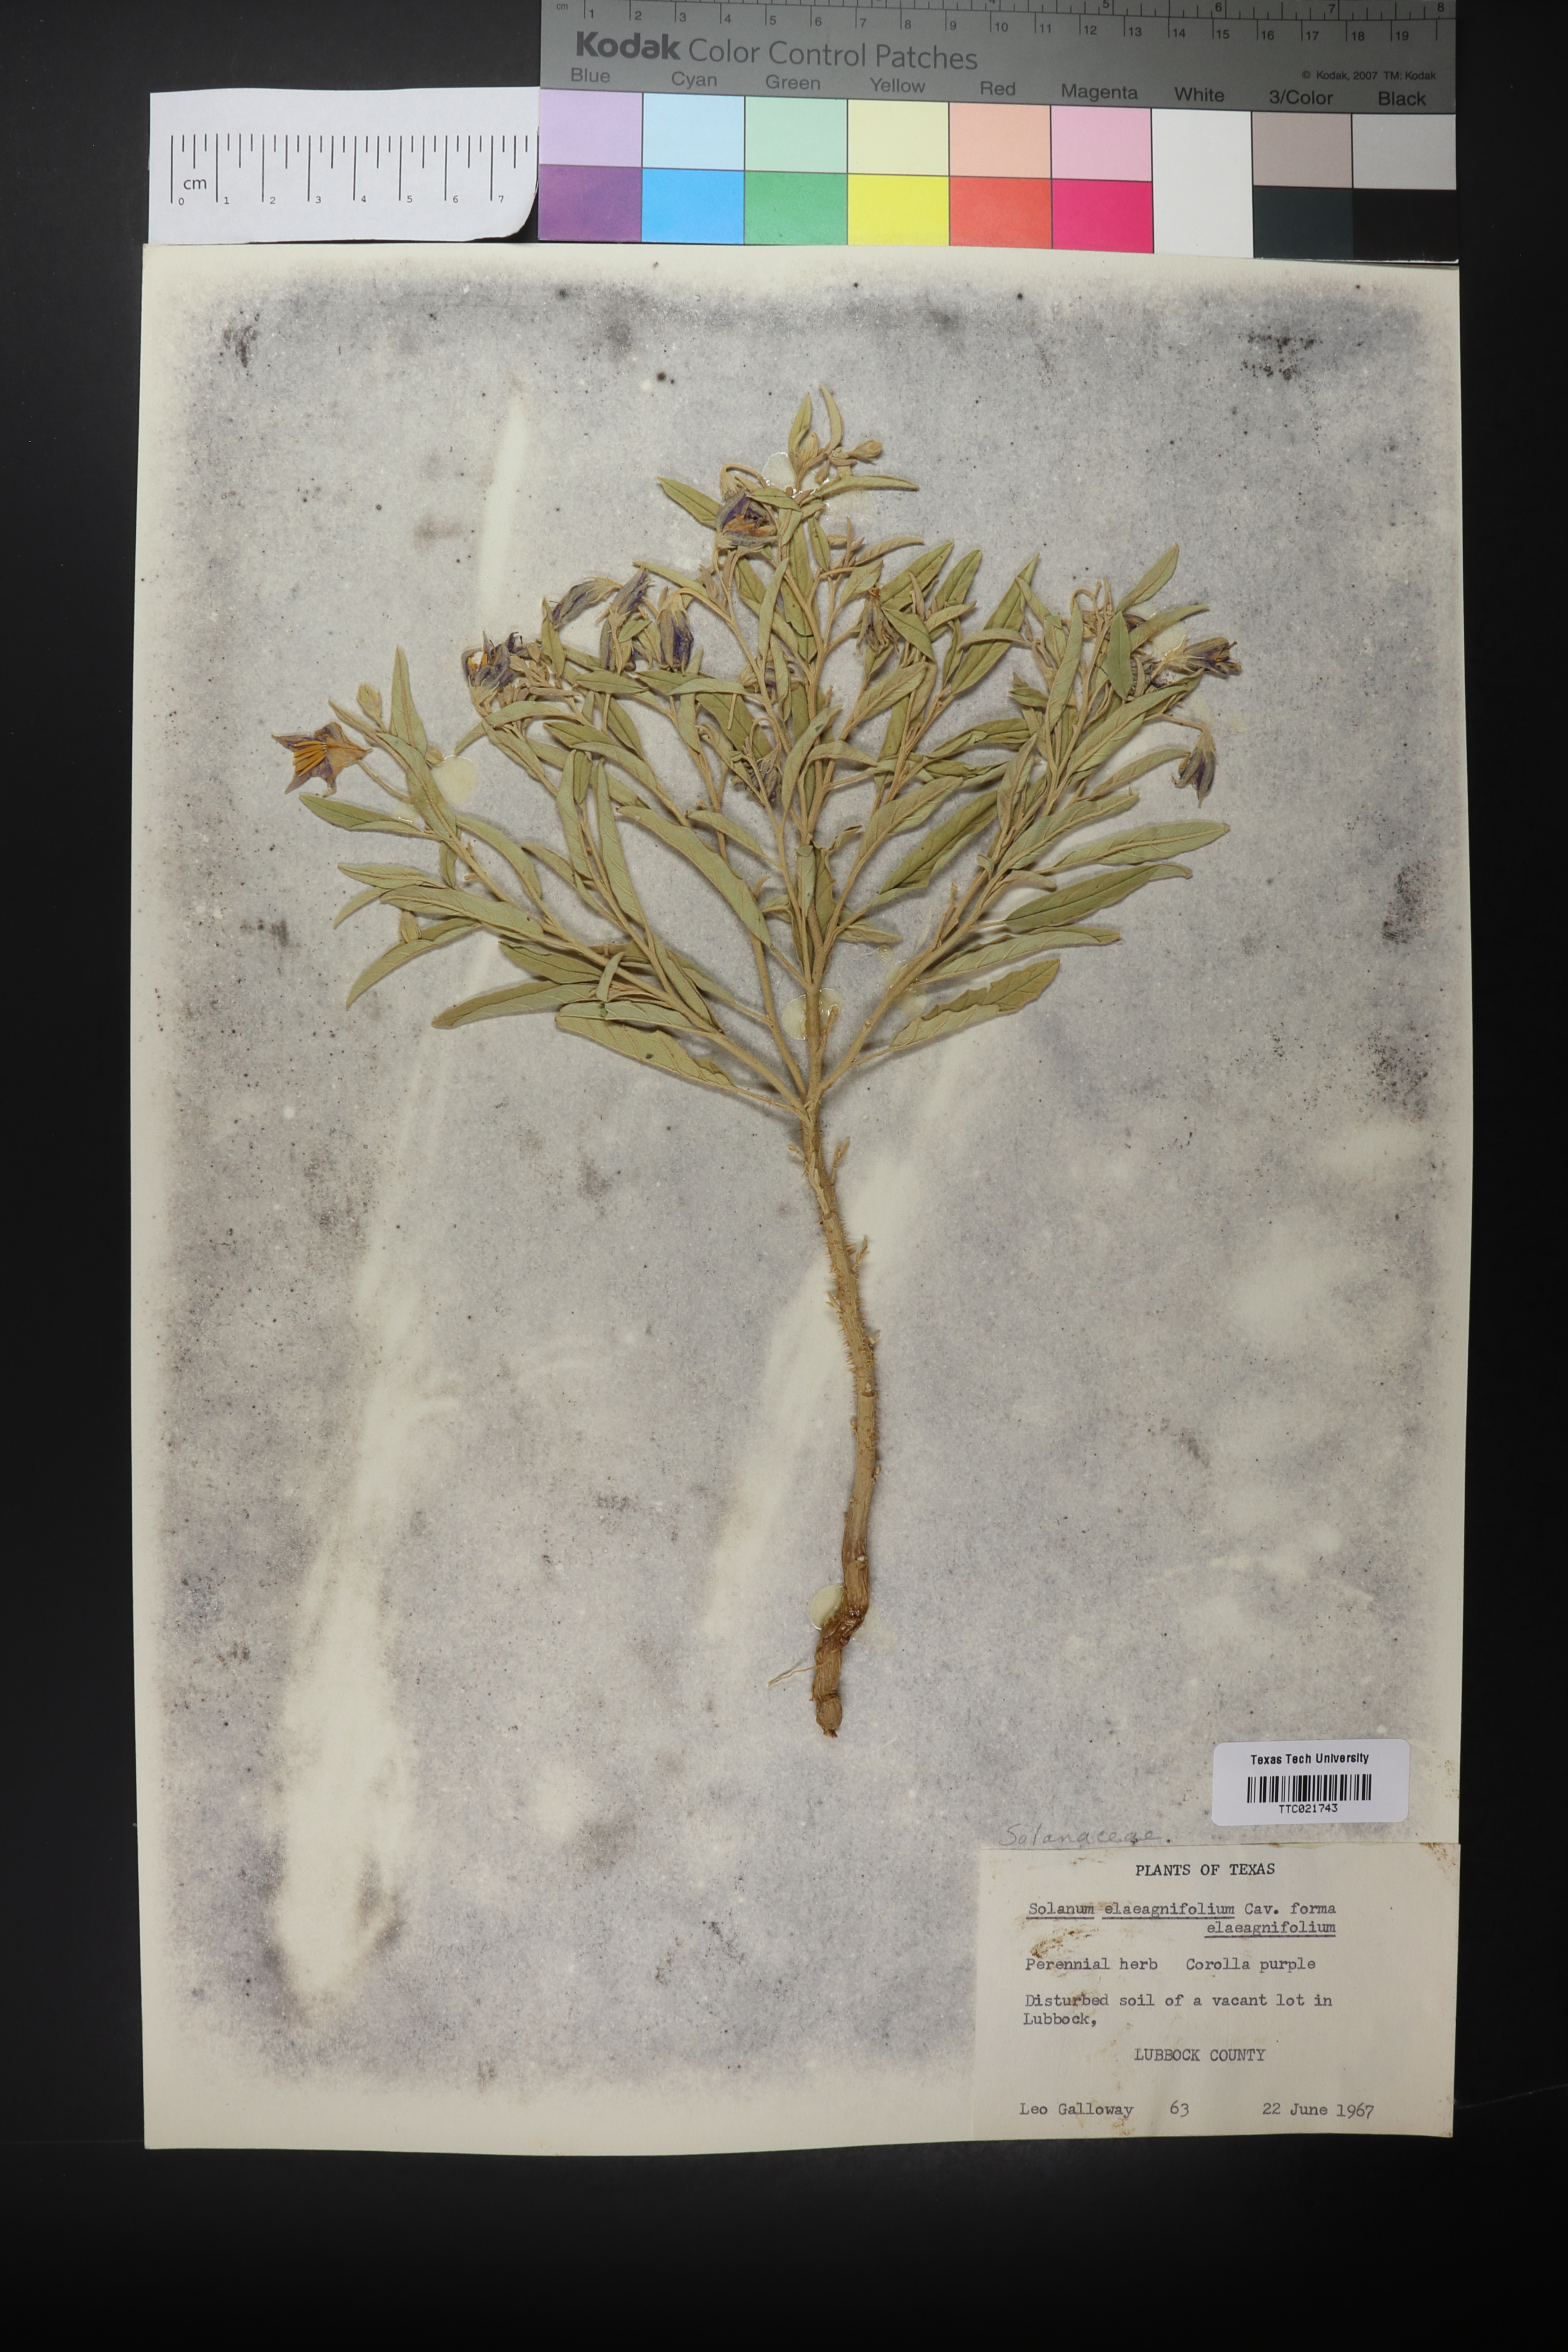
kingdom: Plantae
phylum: Tracheophyta
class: Magnoliopsida
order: Solanales
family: Solanaceae
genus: Solanum
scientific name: Solanum elaeagnifolium
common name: Silverleaf nightshade
